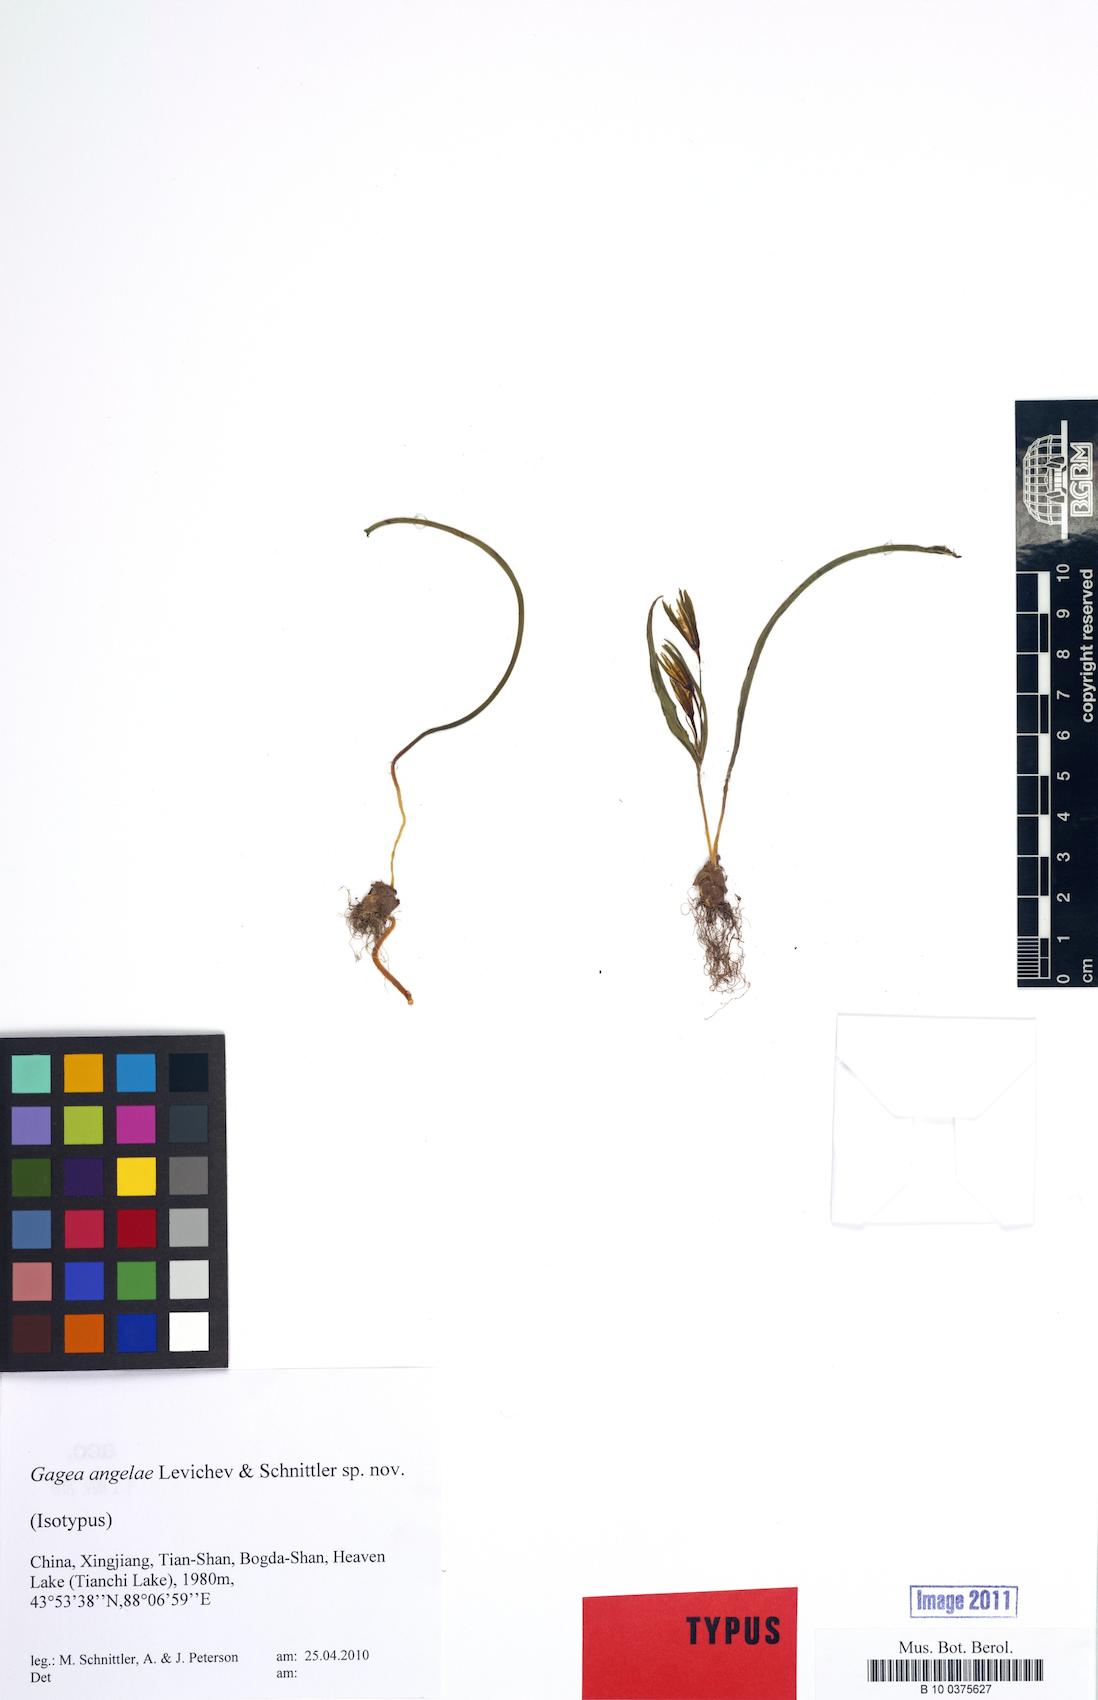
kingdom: Plantae
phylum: Tracheophyta
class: Liliopsida
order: Liliales
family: Liliaceae
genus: Gagea
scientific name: Gagea angelae
